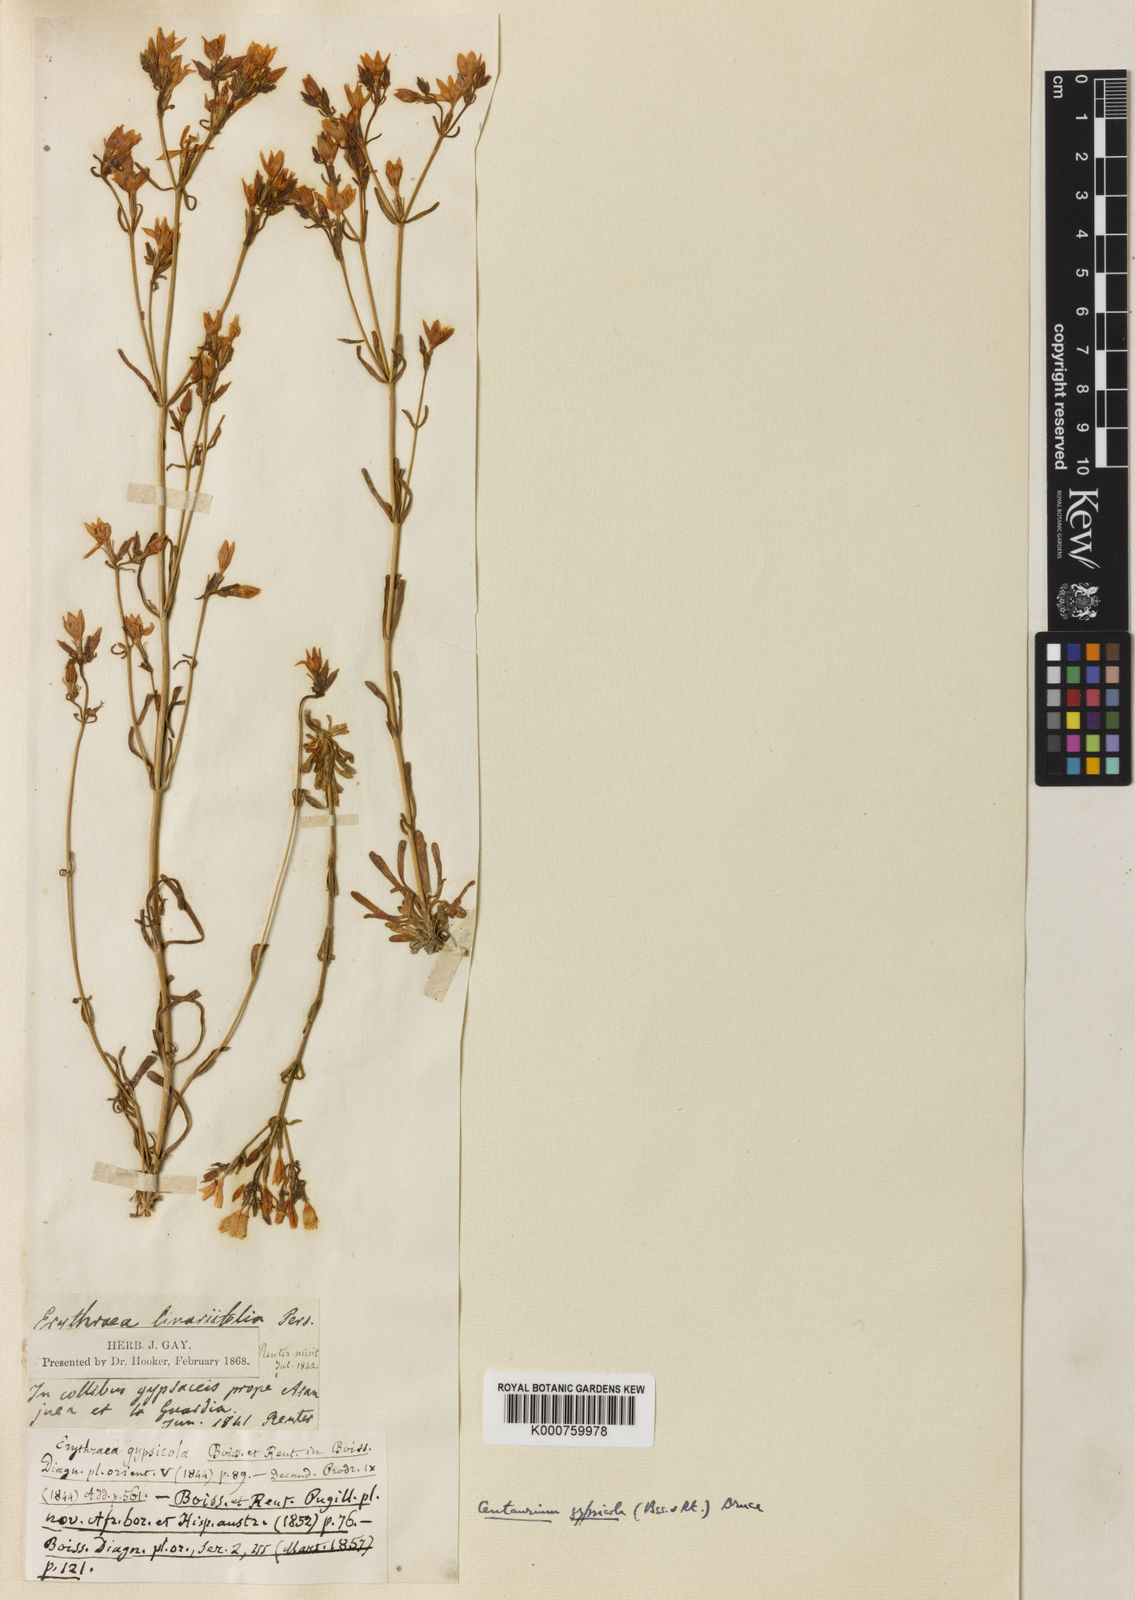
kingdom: Plantae
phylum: Tracheophyta
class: Magnoliopsida
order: Gentianales
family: Gentianaceae
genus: Centaurium
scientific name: Centaurium quadrifolium
